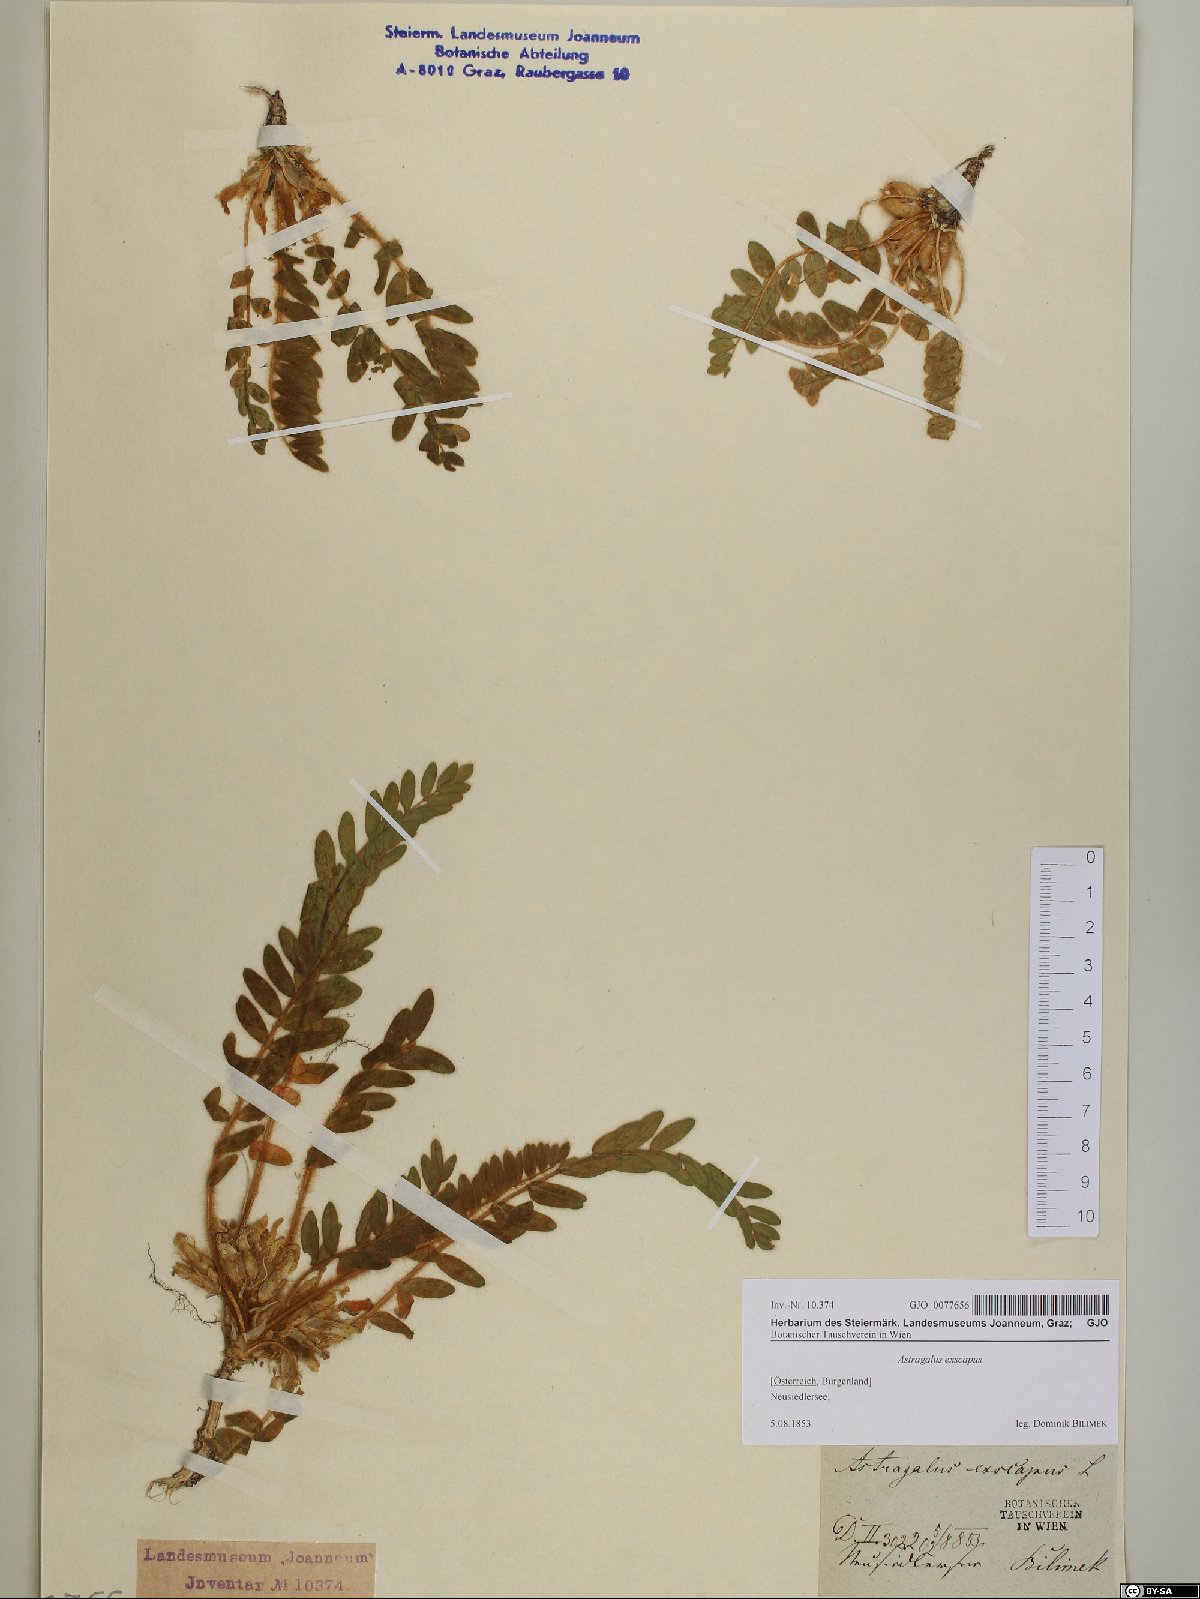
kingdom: Plantae
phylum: Tracheophyta
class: Magnoliopsida
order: Fabales
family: Fabaceae
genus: Astragalus
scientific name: Astragalus exscapus
